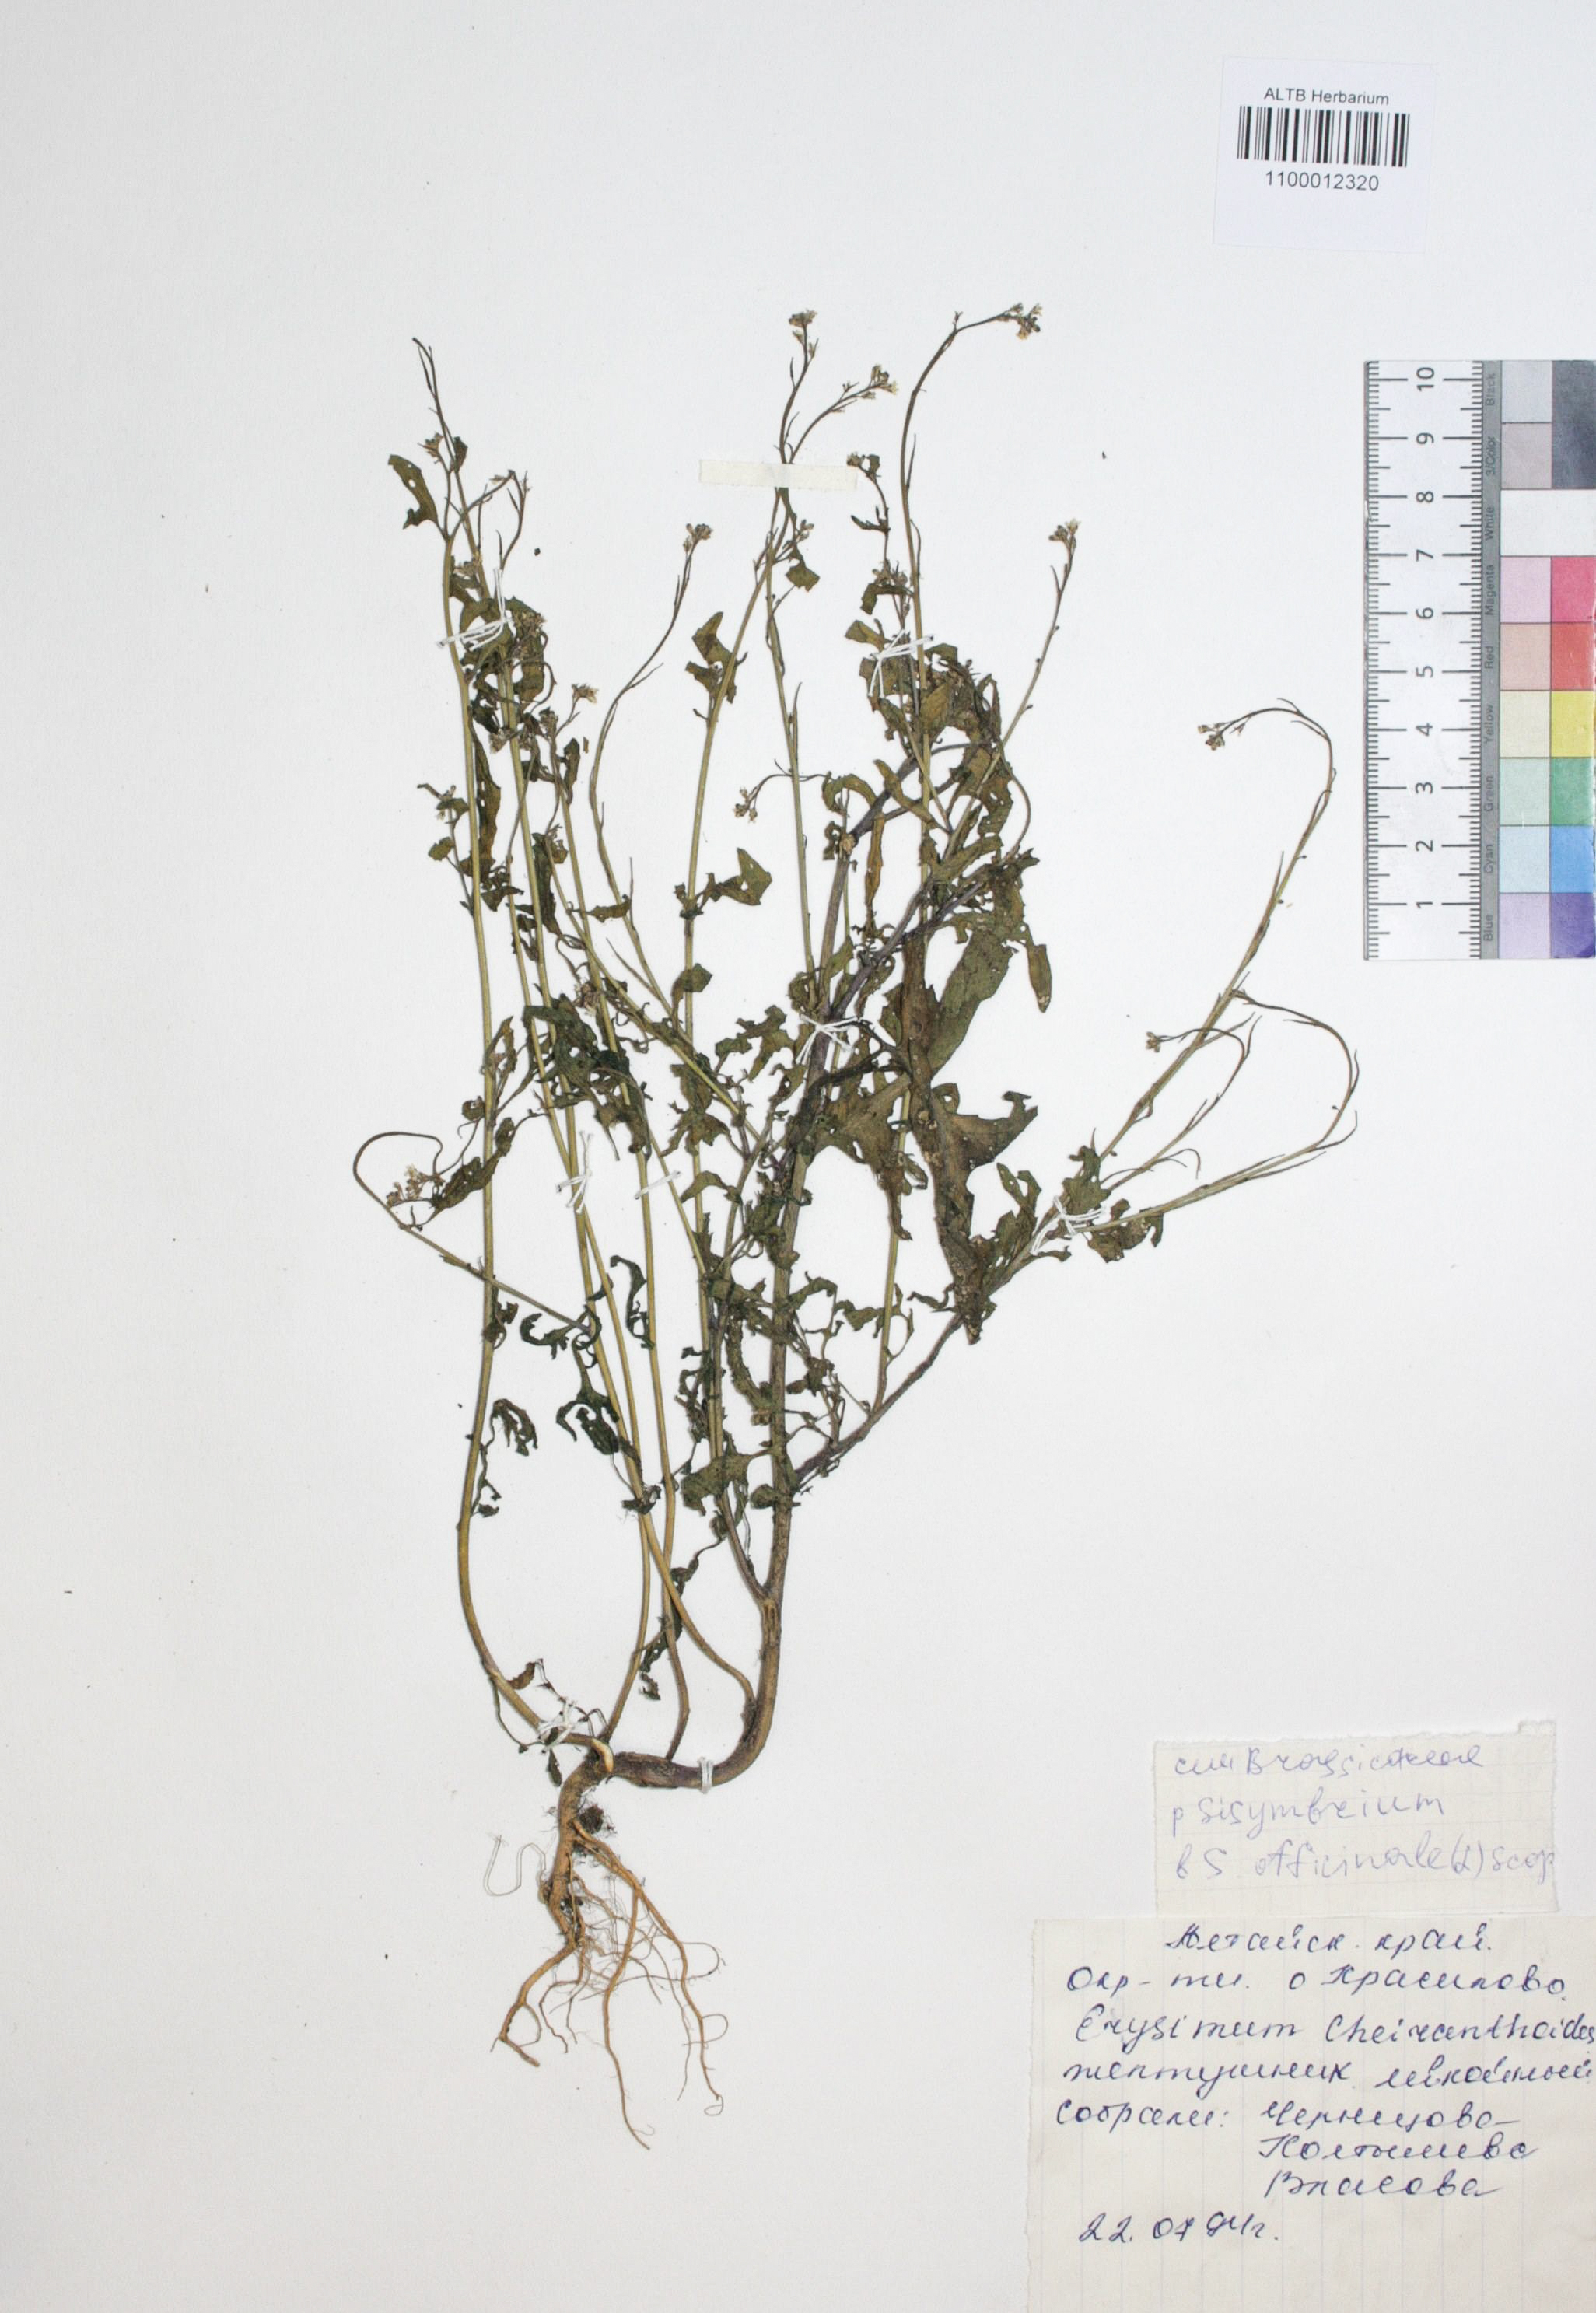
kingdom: Plantae
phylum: Tracheophyta
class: Magnoliopsida
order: Brassicales
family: Brassicaceae
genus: Sisymbrium
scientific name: Sisymbrium officinale
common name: Hedge mustard
